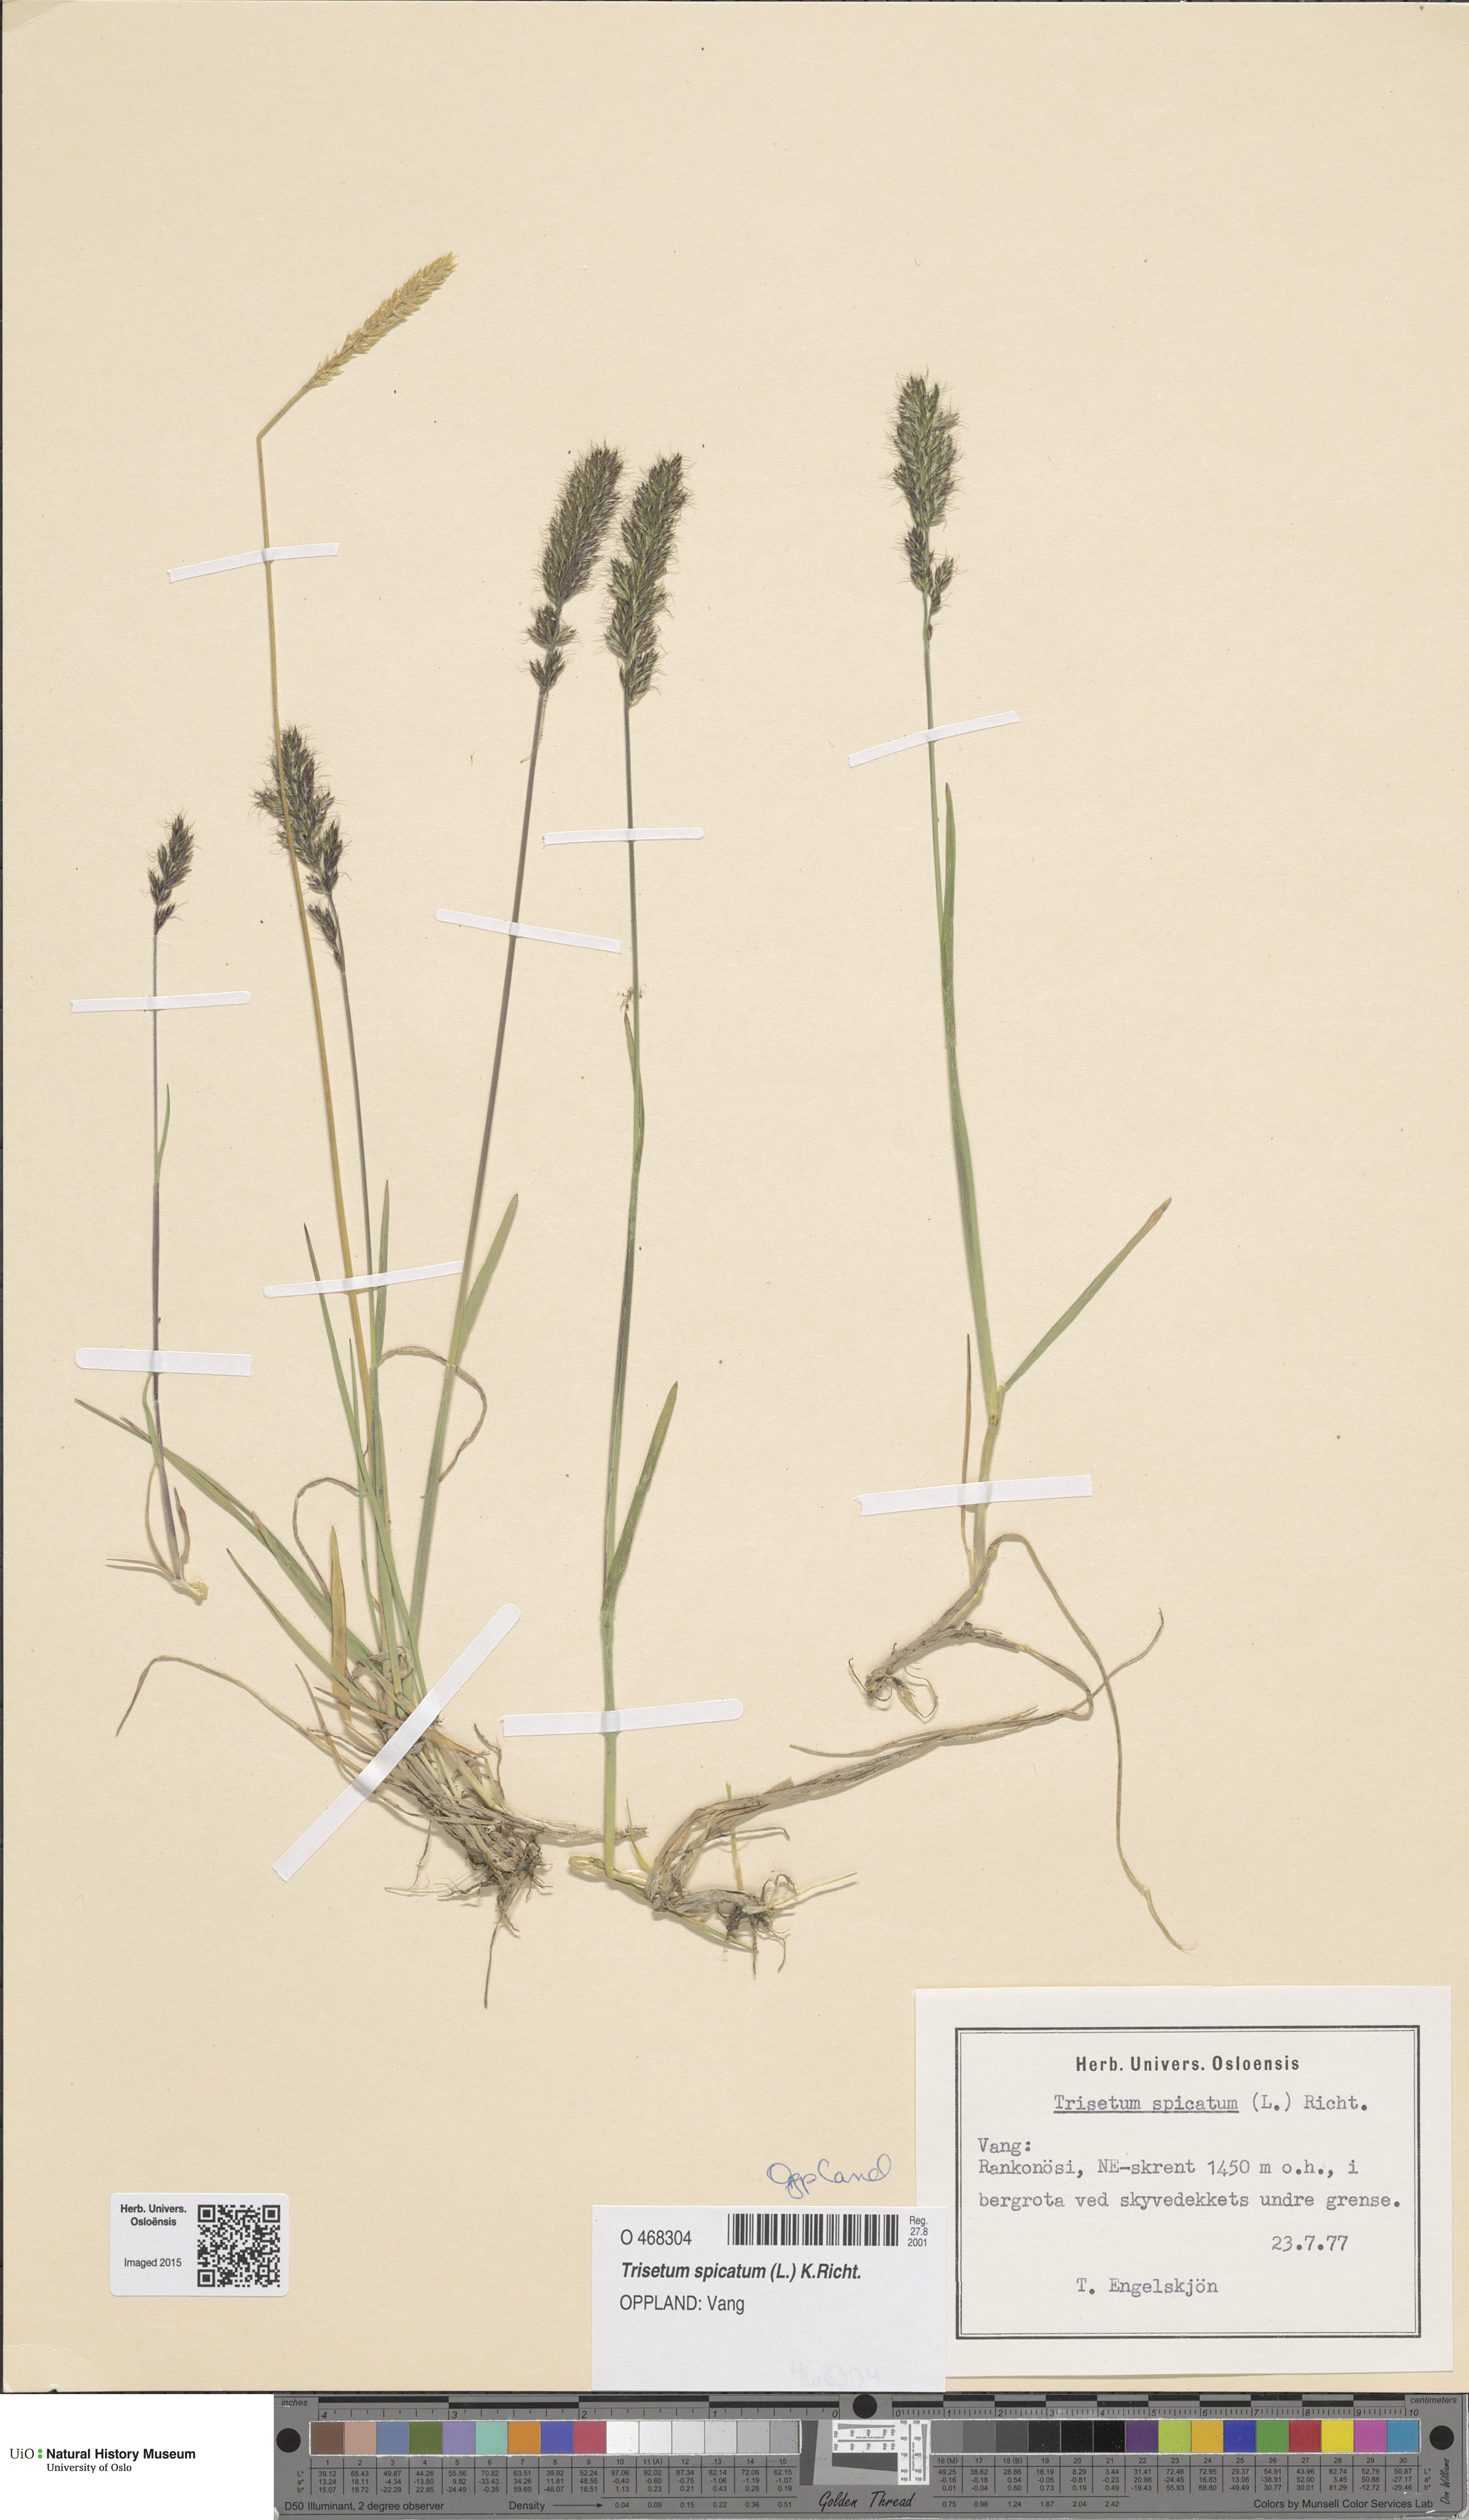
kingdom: Plantae
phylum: Tracheophyta
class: Liliopsida
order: Poales
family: Poaceae
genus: Koeleria
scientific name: Koeleria spicata
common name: Mountain trisetum
